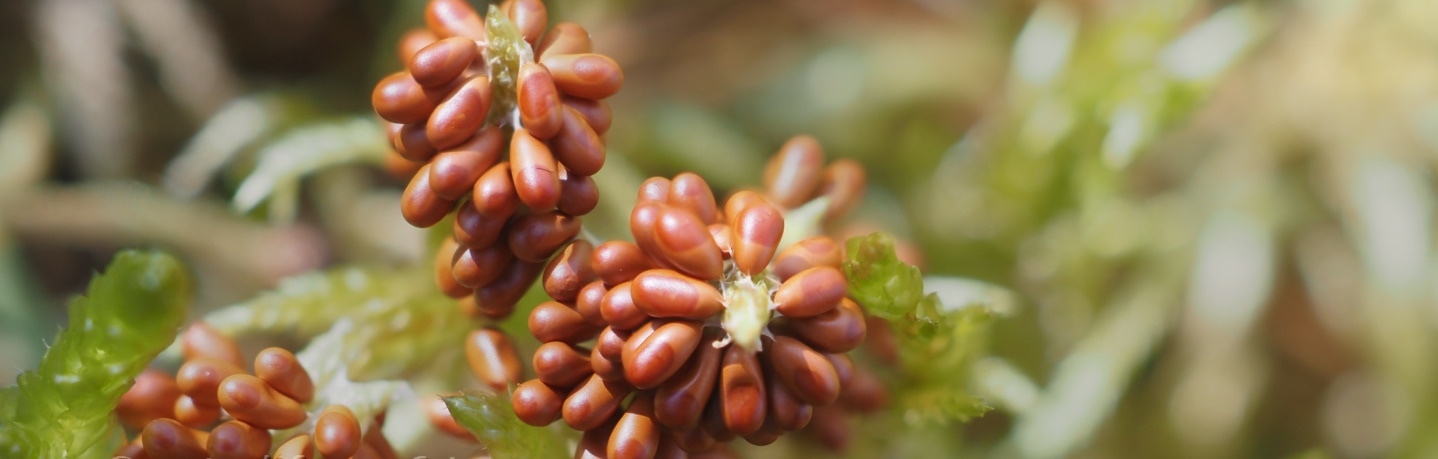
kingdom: Protozoa
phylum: Mycetozoa
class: Myxomycetes
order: Physarales
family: Physaraceae
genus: Leocarpus
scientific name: Leocarpus fragilis
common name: poleret glatfrø
